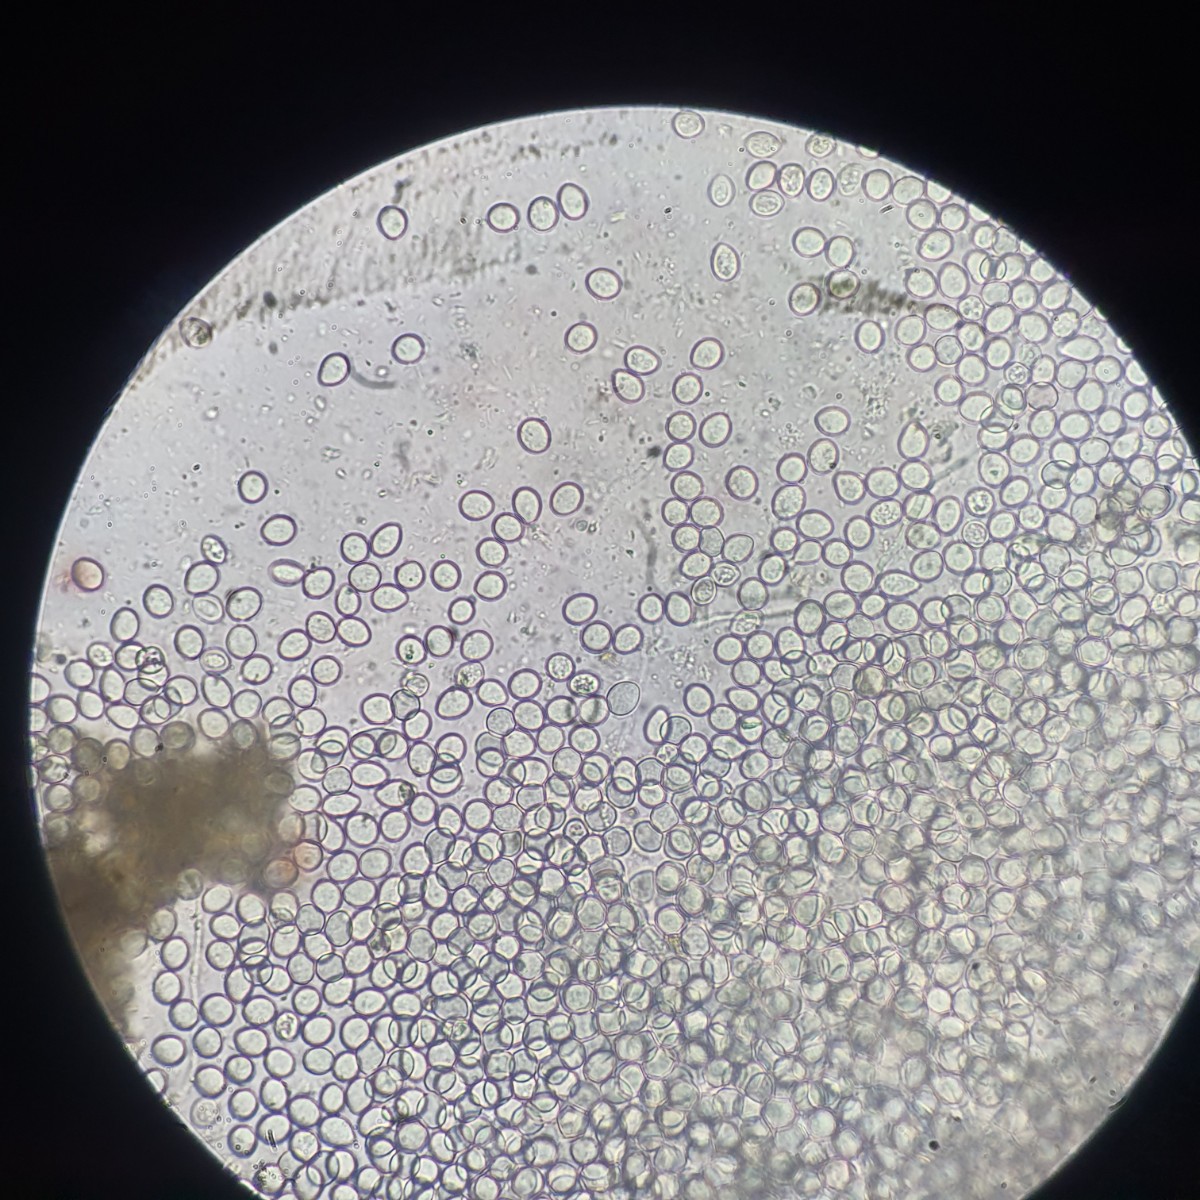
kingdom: Fungi
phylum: Ascomycota
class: Sordariomycetes
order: Diaporthales
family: Gnomoniaceae
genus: Plagiostoma
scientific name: Plagiostoma populinum
